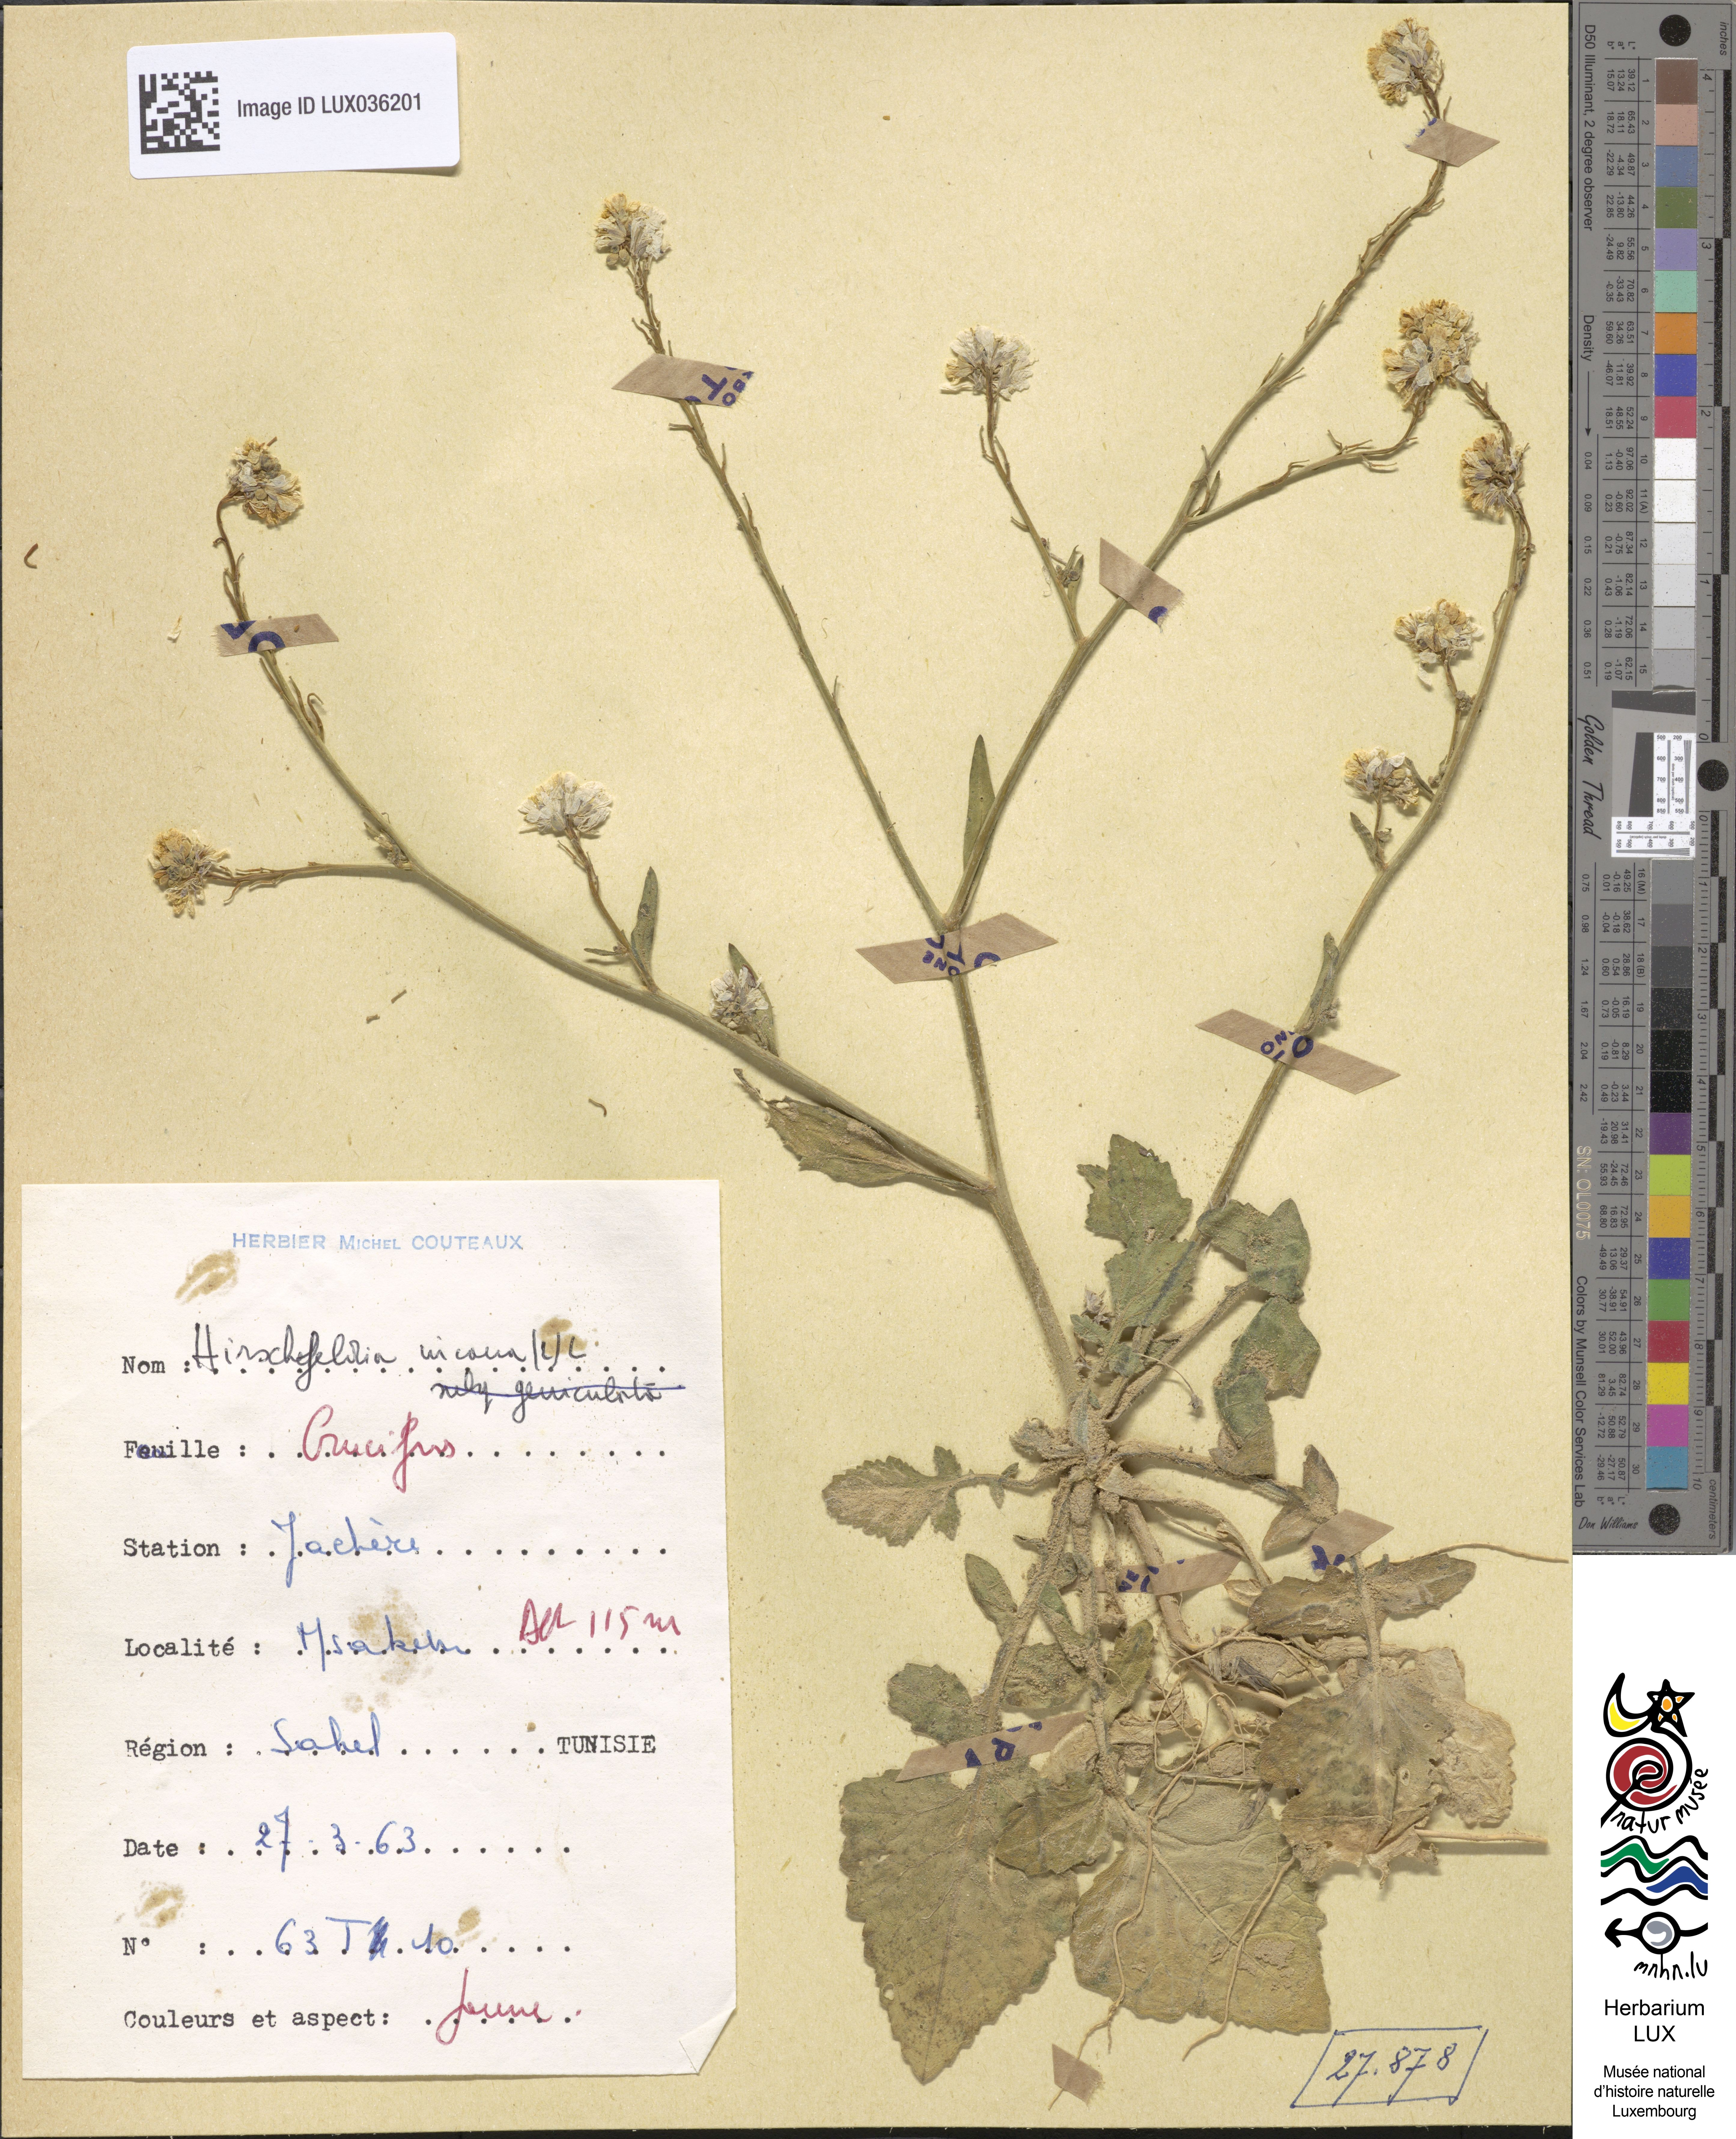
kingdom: Plantae
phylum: Tracheophyta
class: Magnoliopsida
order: Brassicales
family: Brassicaceae
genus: Hirschfeldia
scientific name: Hirschfeldia incana
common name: Hoary mustard
